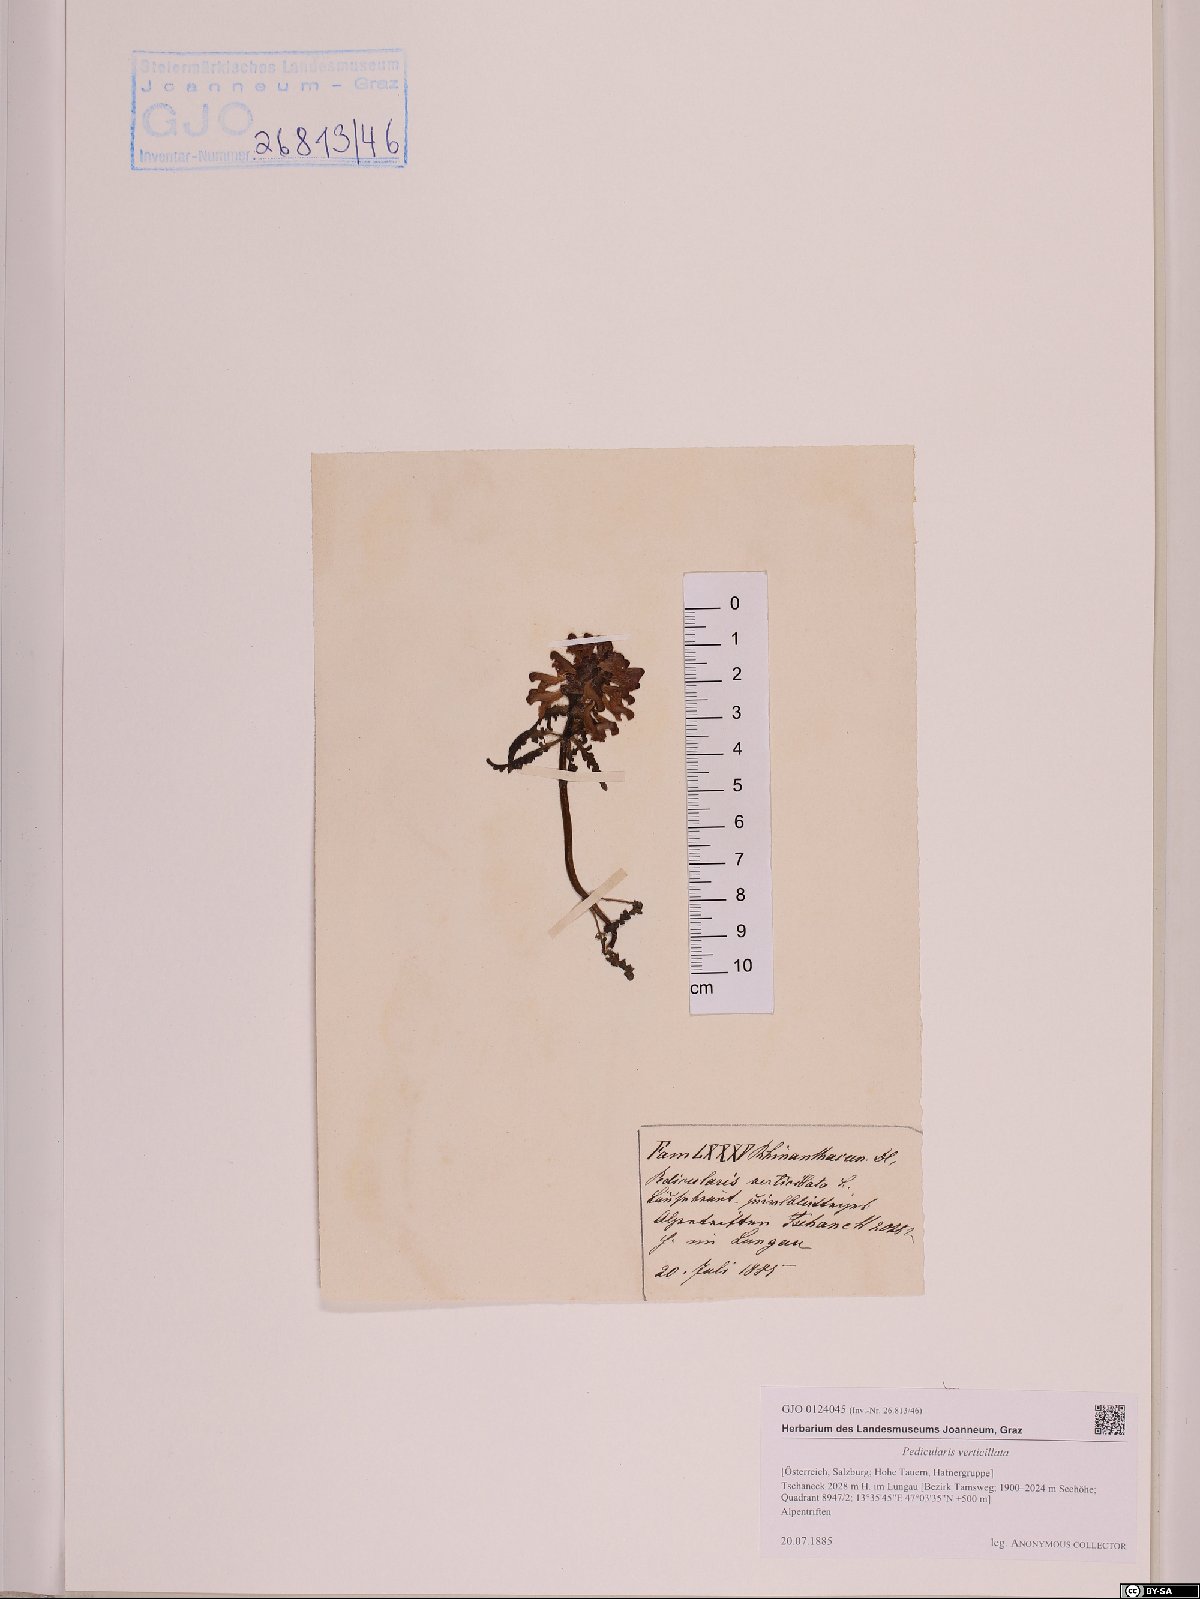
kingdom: Plantae
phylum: Tracheophyta
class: Magnoliopsida
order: Lamiales
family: Orobanchaceae
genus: Pedicularis
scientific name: Pedicularis verticillata
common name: Whorled lousewort
